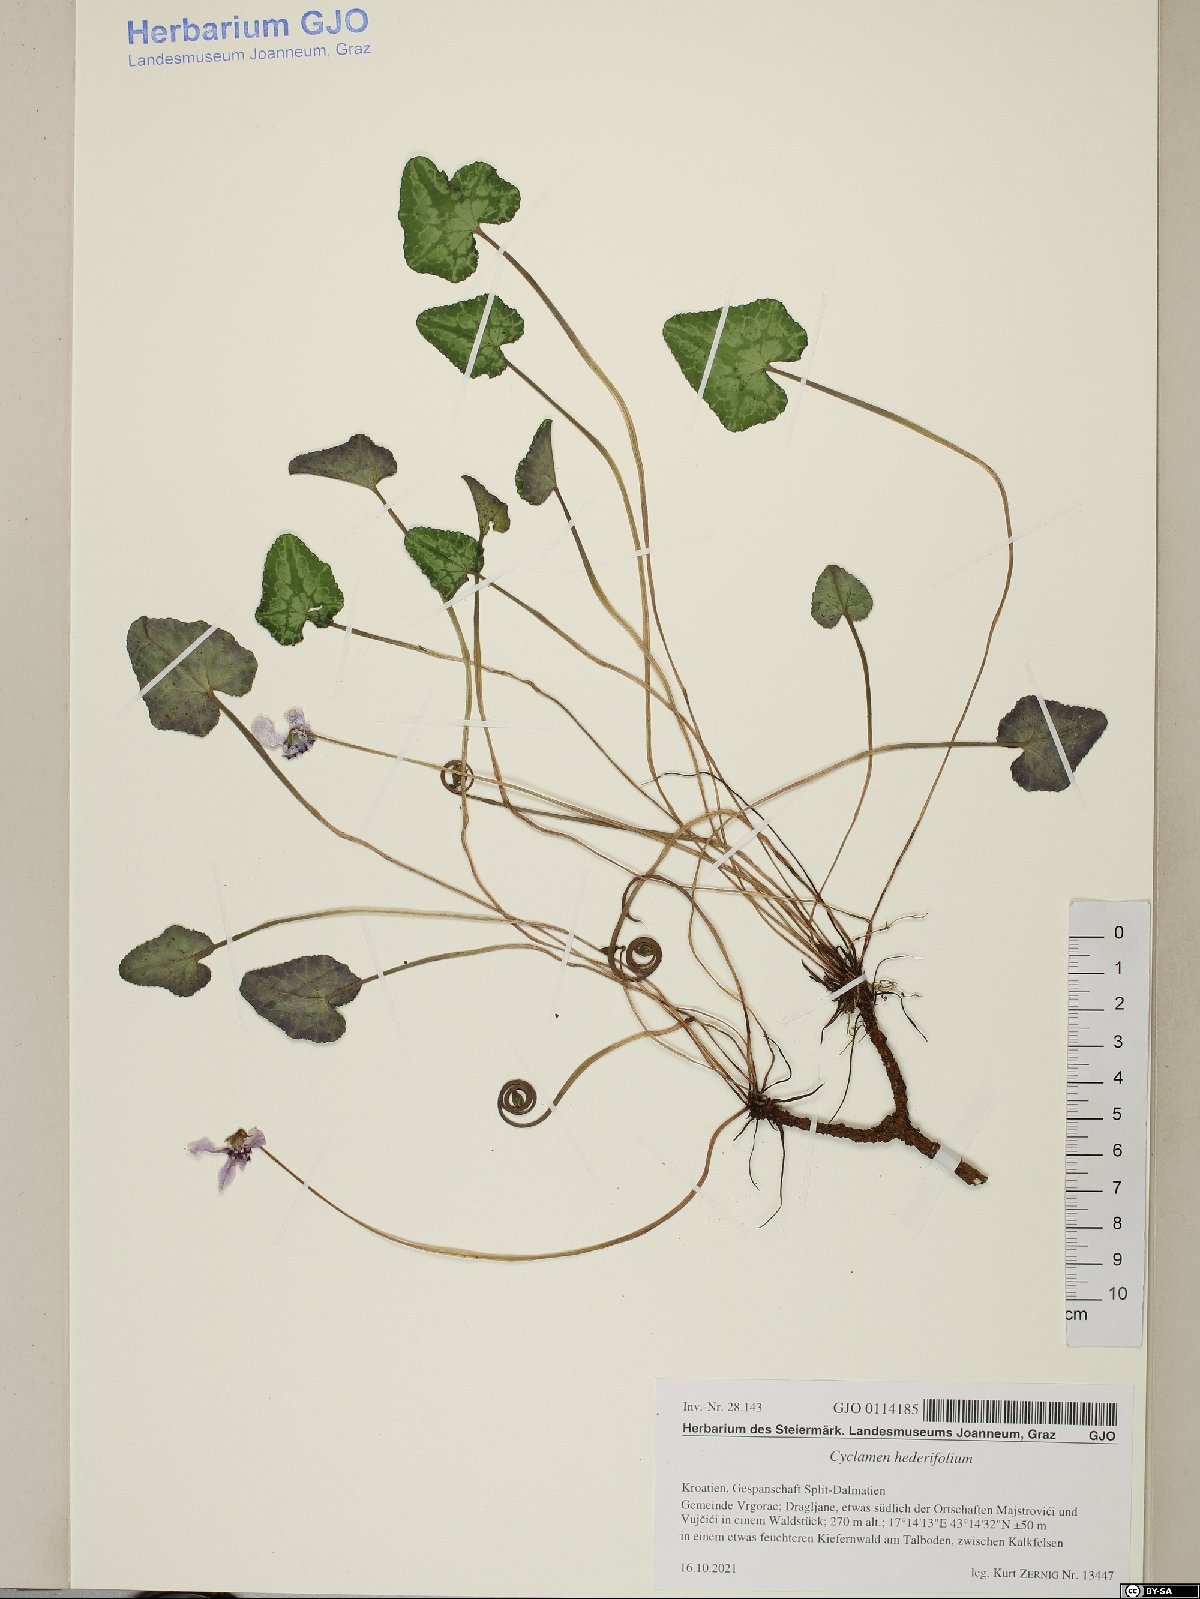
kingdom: Plantae
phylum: Tracheophyta
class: Magnoliopsida
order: Ericales
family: Primulaceae
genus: Cyclamen
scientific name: Cyclamen hederifolium
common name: Sowbread
